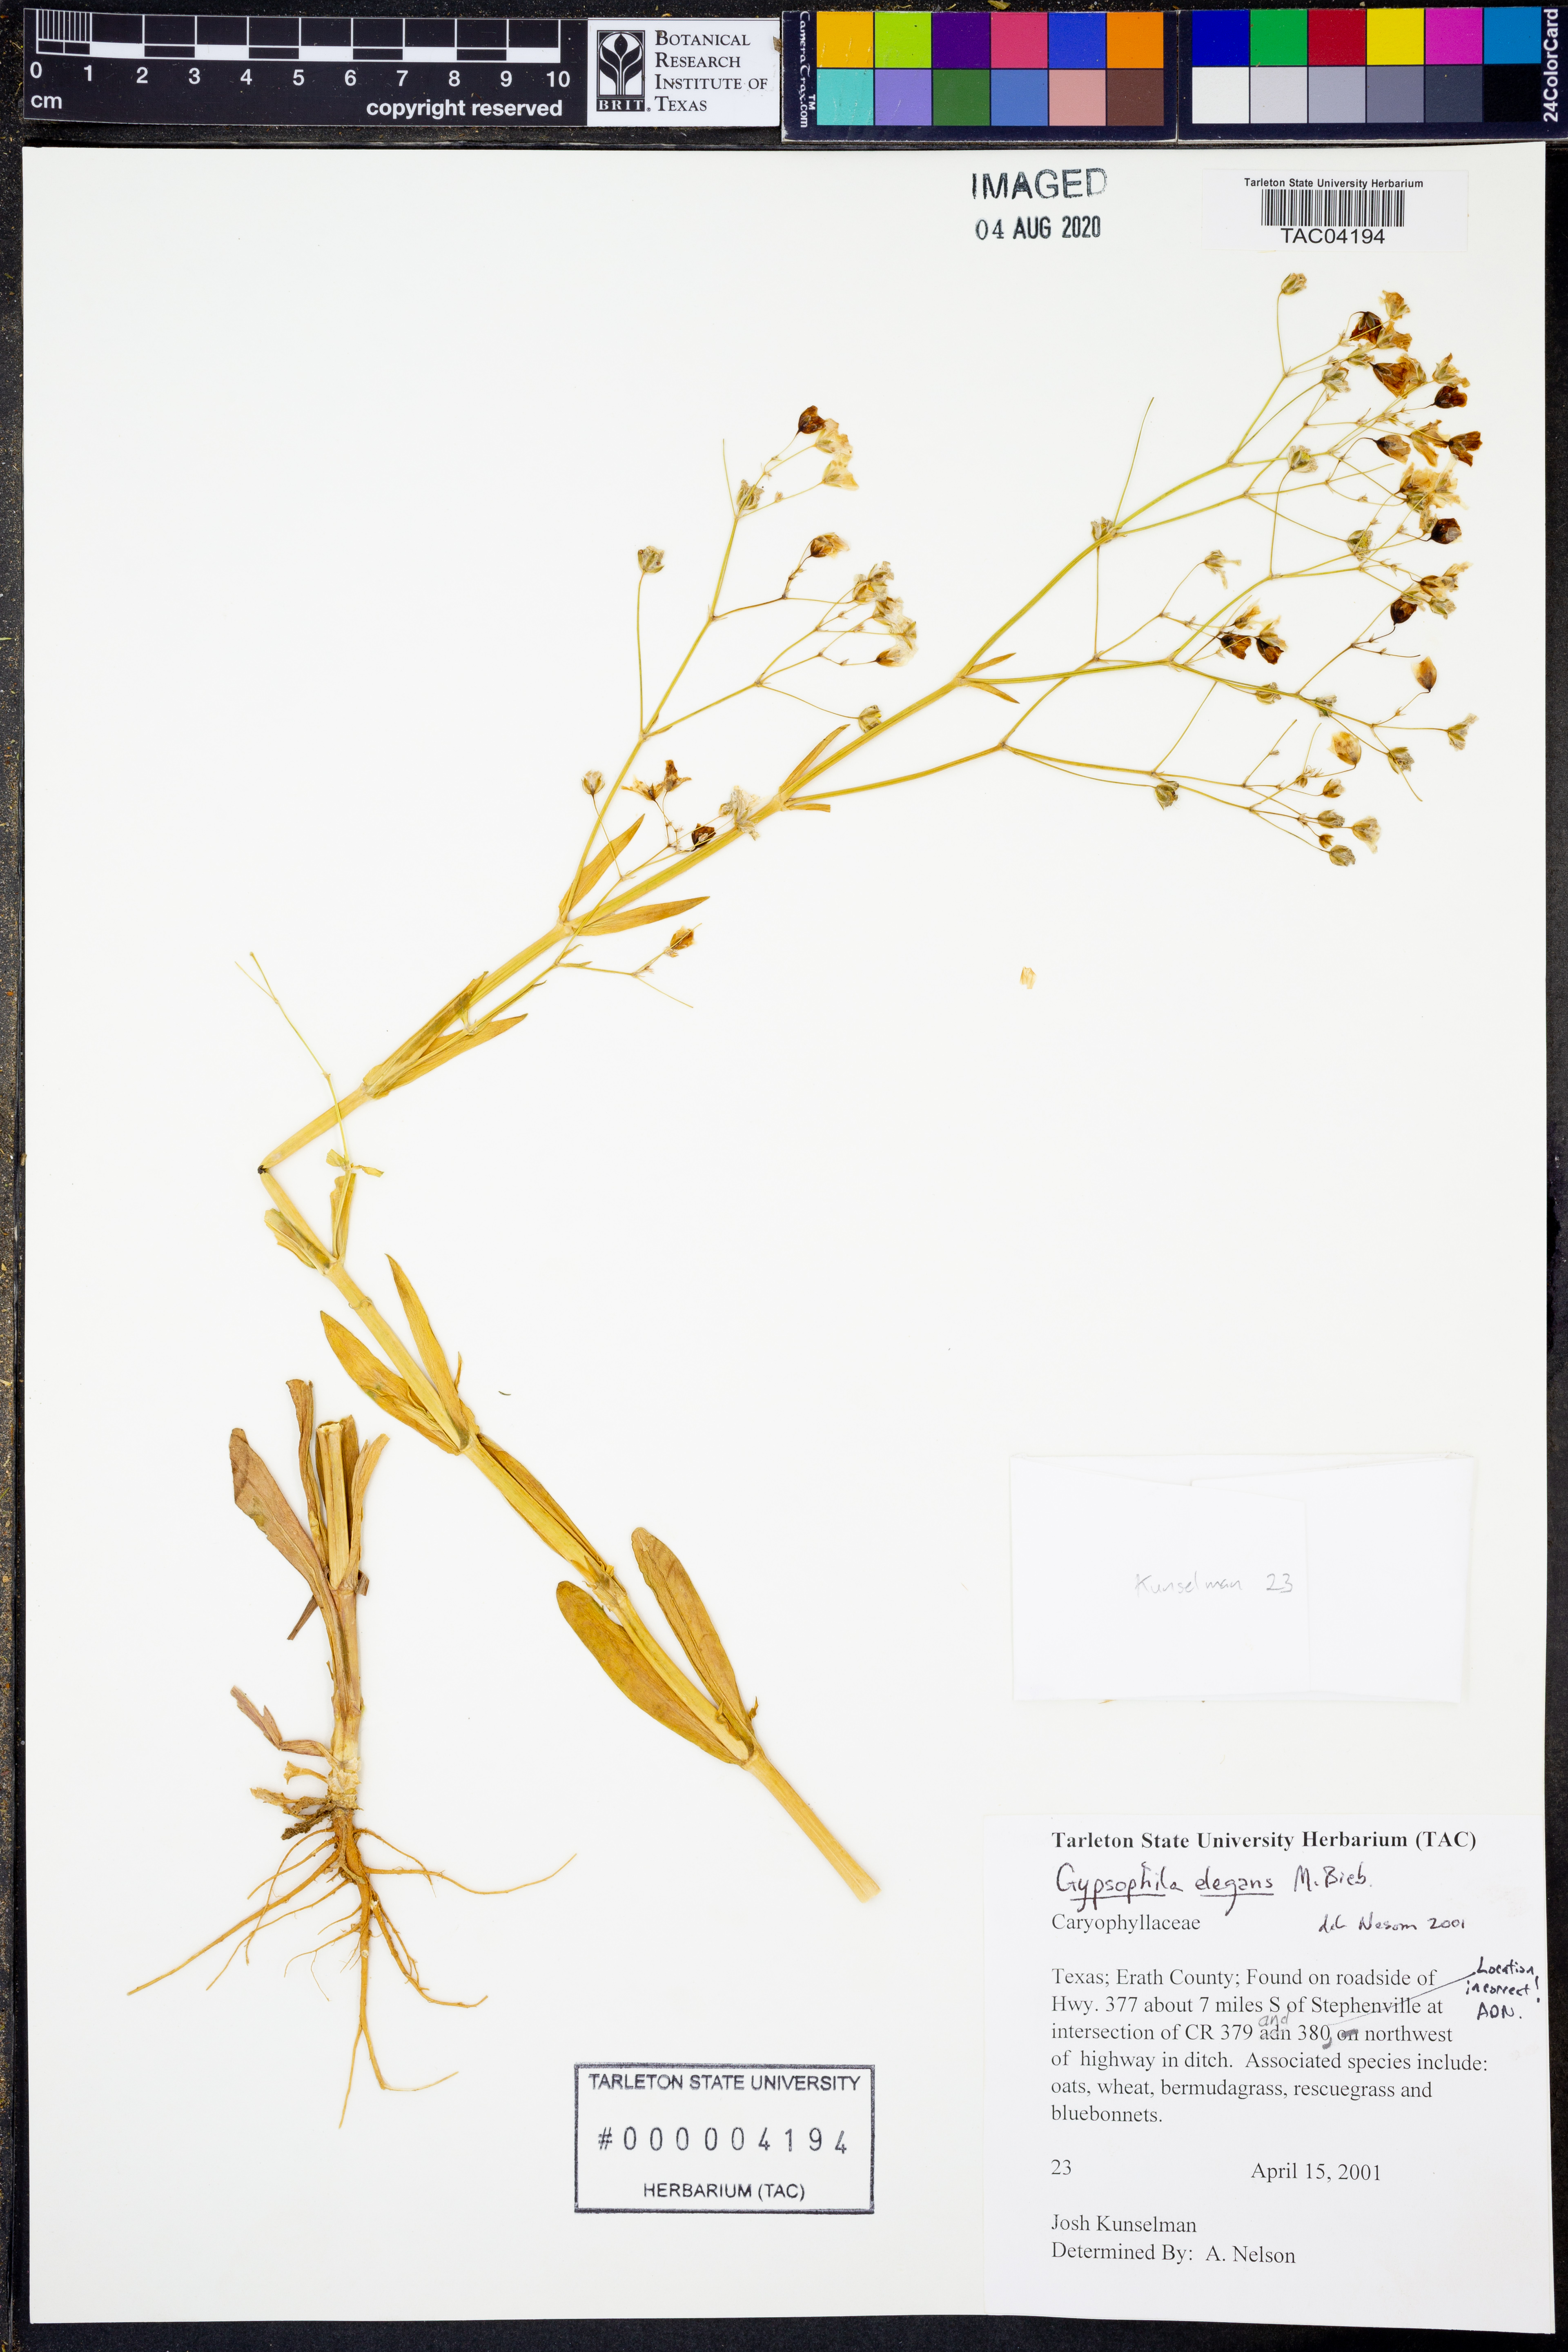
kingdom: Plantae
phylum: Tracheophyta
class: Magnoliopsida
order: Caryophyllales
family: Caryophyllaceae
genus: Gypsophila
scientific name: Gypsophila elegans
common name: Showy baby's-breath
